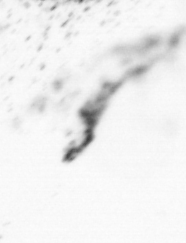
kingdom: Chromista
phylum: Ochrophyta
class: Bacillariophyceae
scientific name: Bacillariophyceae
